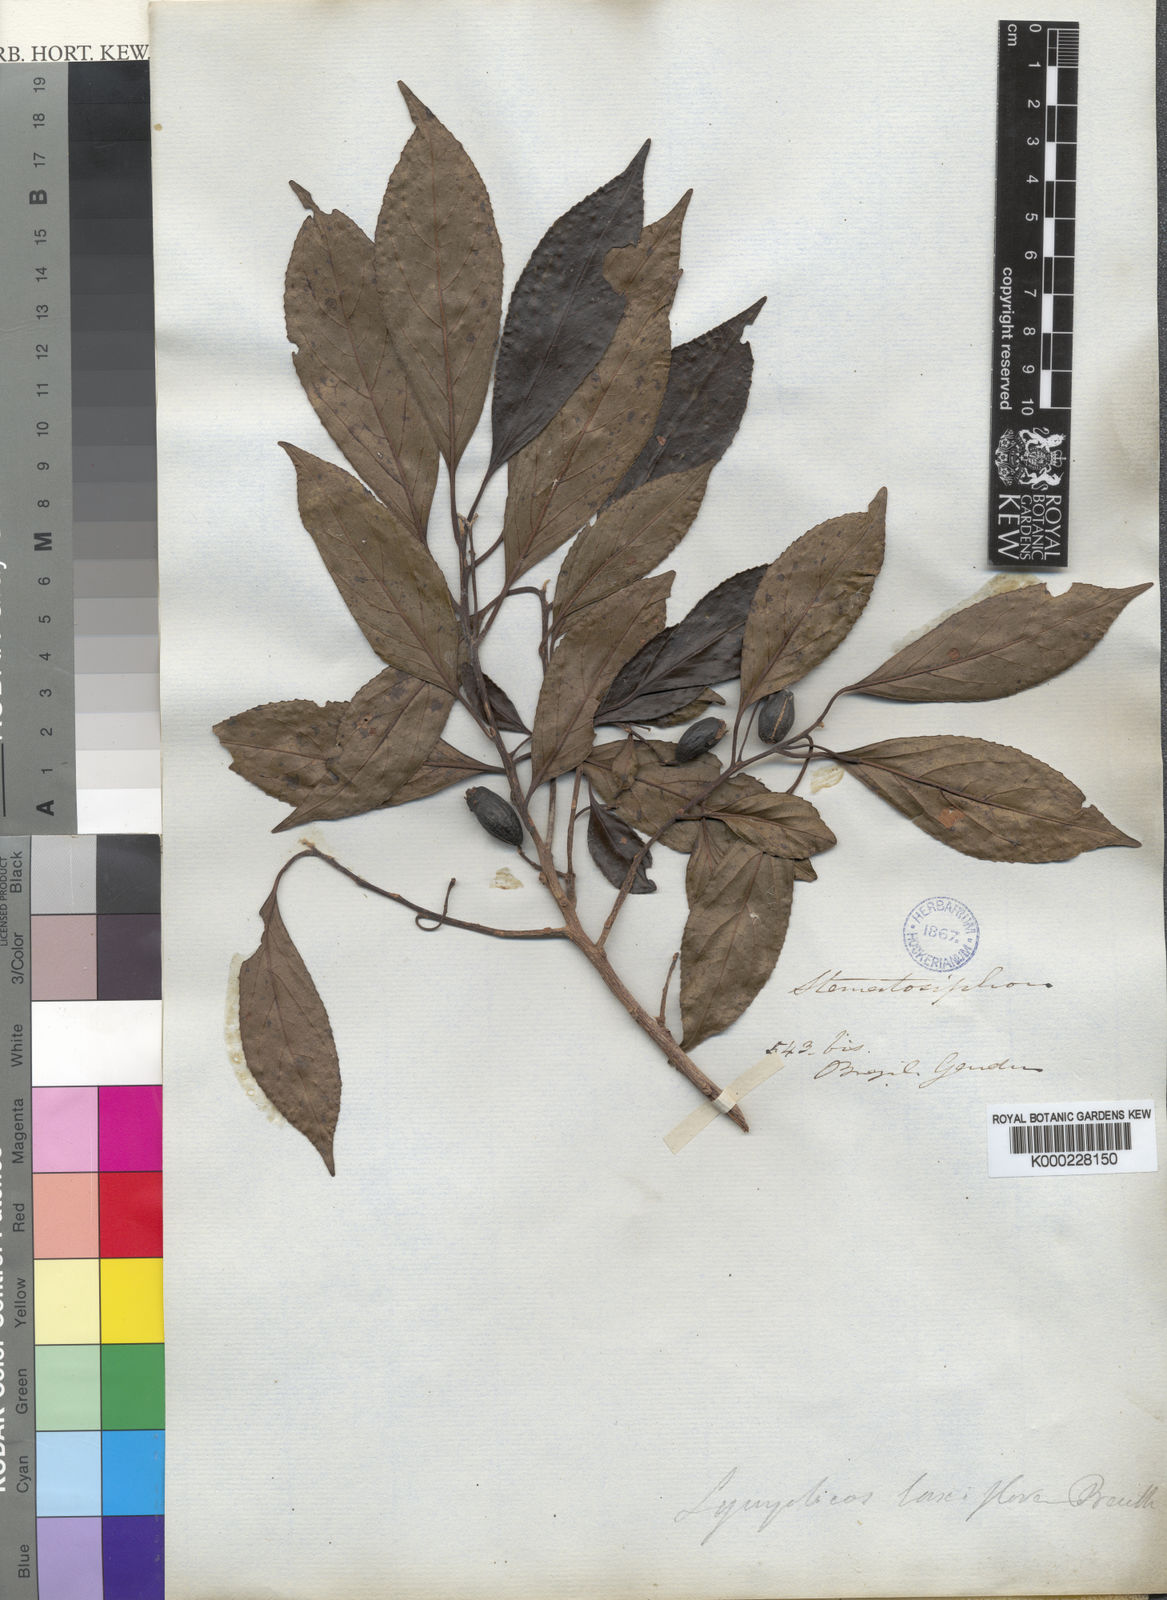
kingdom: Plantae
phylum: Tracheophyta
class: Magnoliopsida
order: Ericales
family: Symplocaceae
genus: Symplocos
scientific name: Symplocos laxiflora
